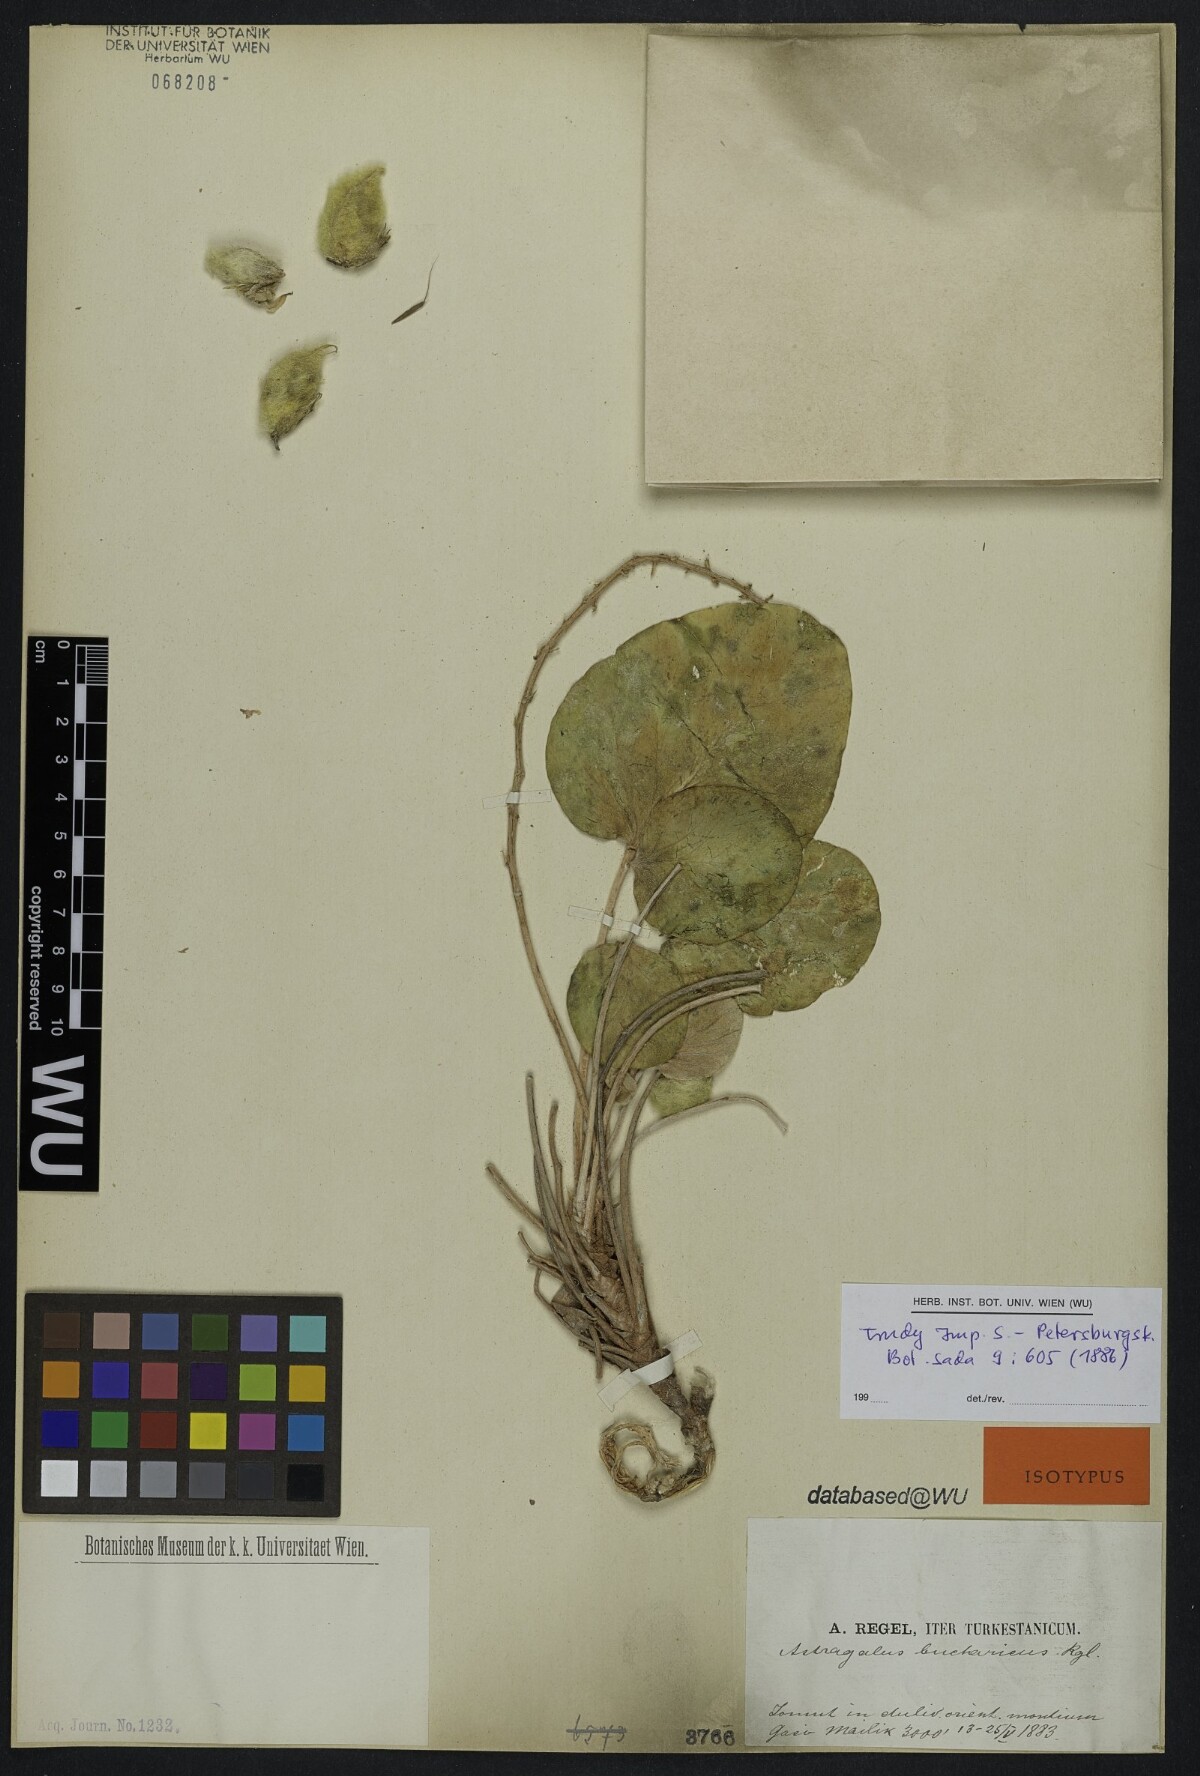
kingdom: Plantae
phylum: Tracheophyta
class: Magnoliopsida
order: Fabales
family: Fabaceae
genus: Astragalus
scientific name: Astragalus bucharicus
